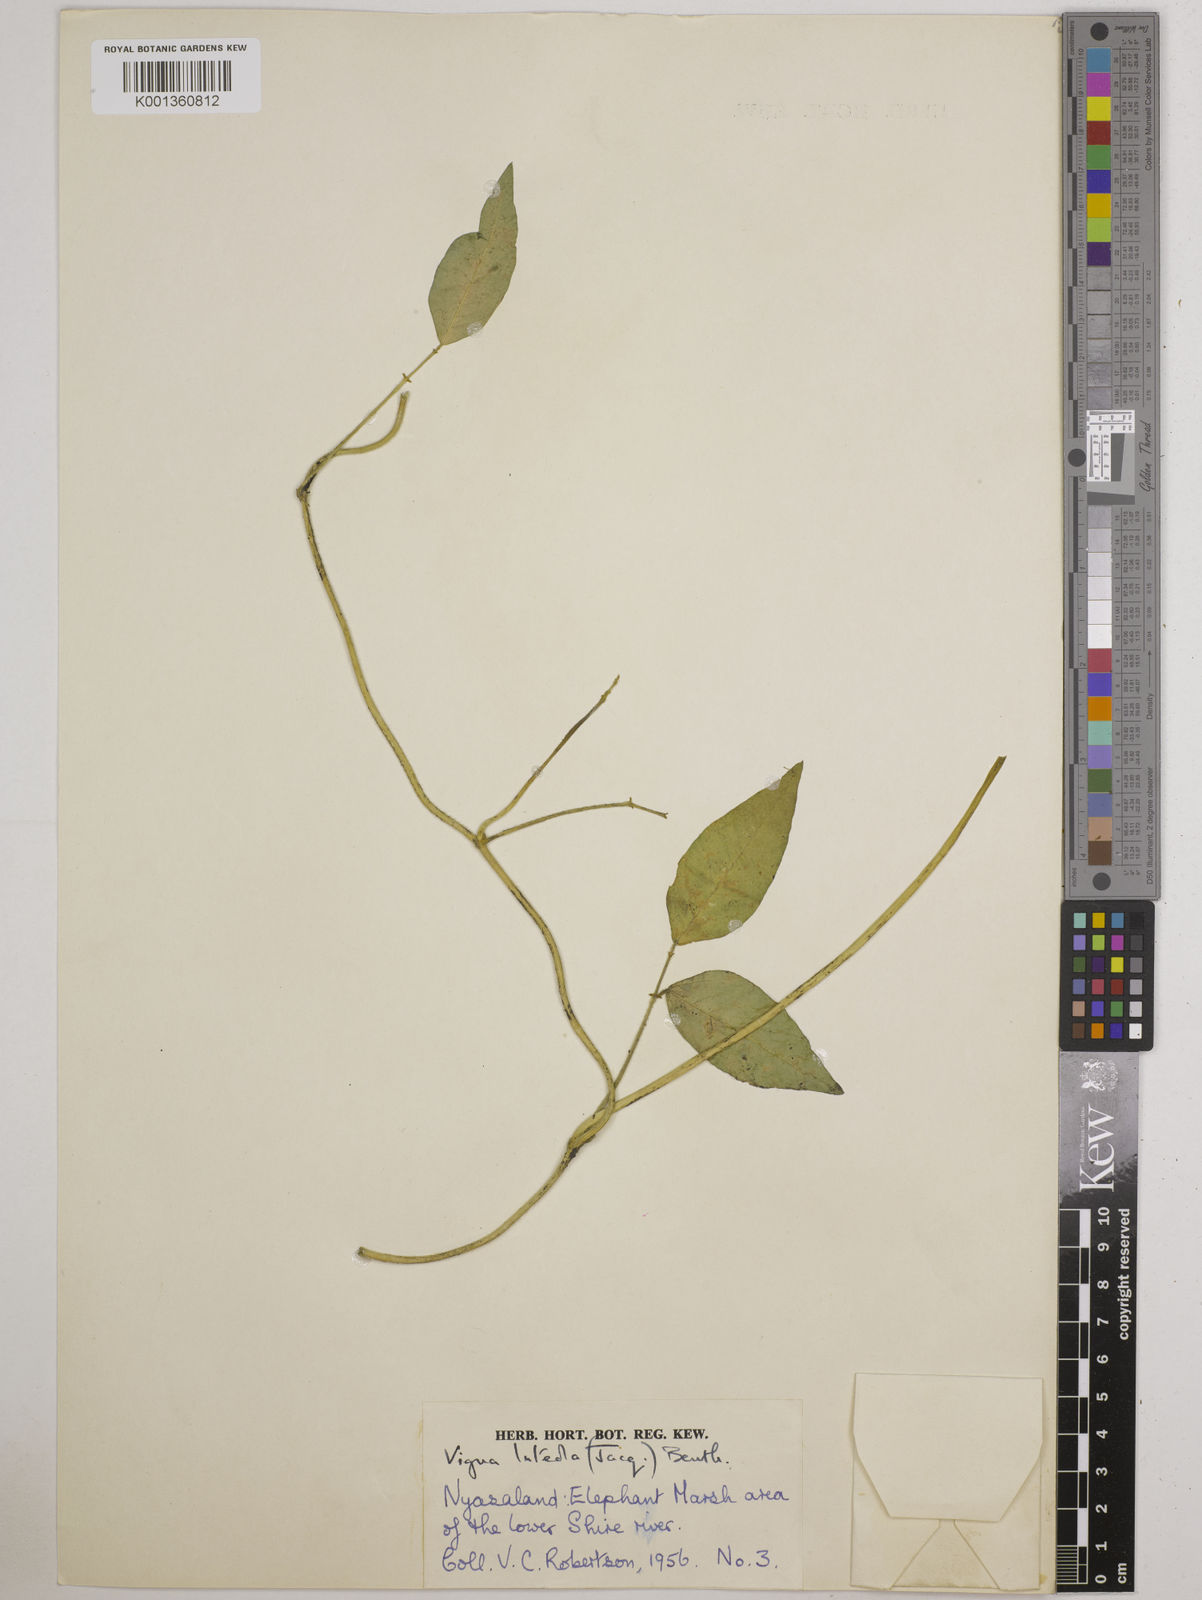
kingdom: Plantae
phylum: Tracheophyta
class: Magnoliopsida
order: Fabales
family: Fabaceae
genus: Vigna
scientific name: Vigna luteola
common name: Hairypod cowpea
